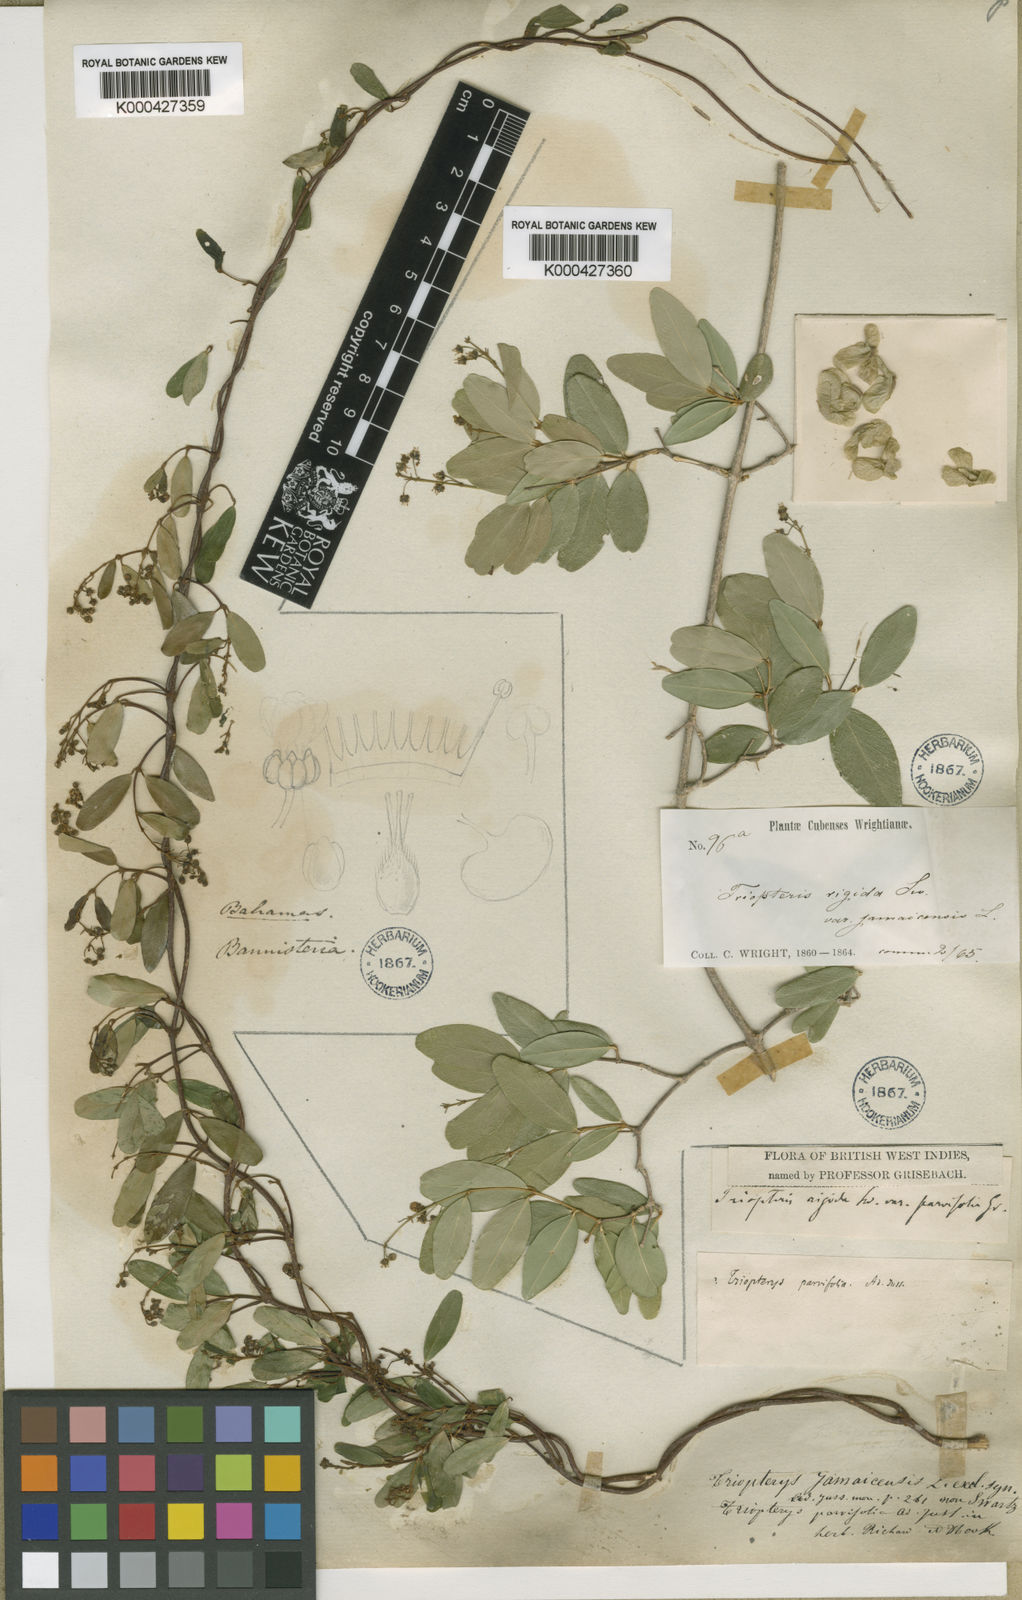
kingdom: Plantae
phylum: Tracheophyta
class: Magnoliopsida
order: Malpighiales
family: Malpighiaceae
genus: Mascagnia
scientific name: Mascagnia lucida
